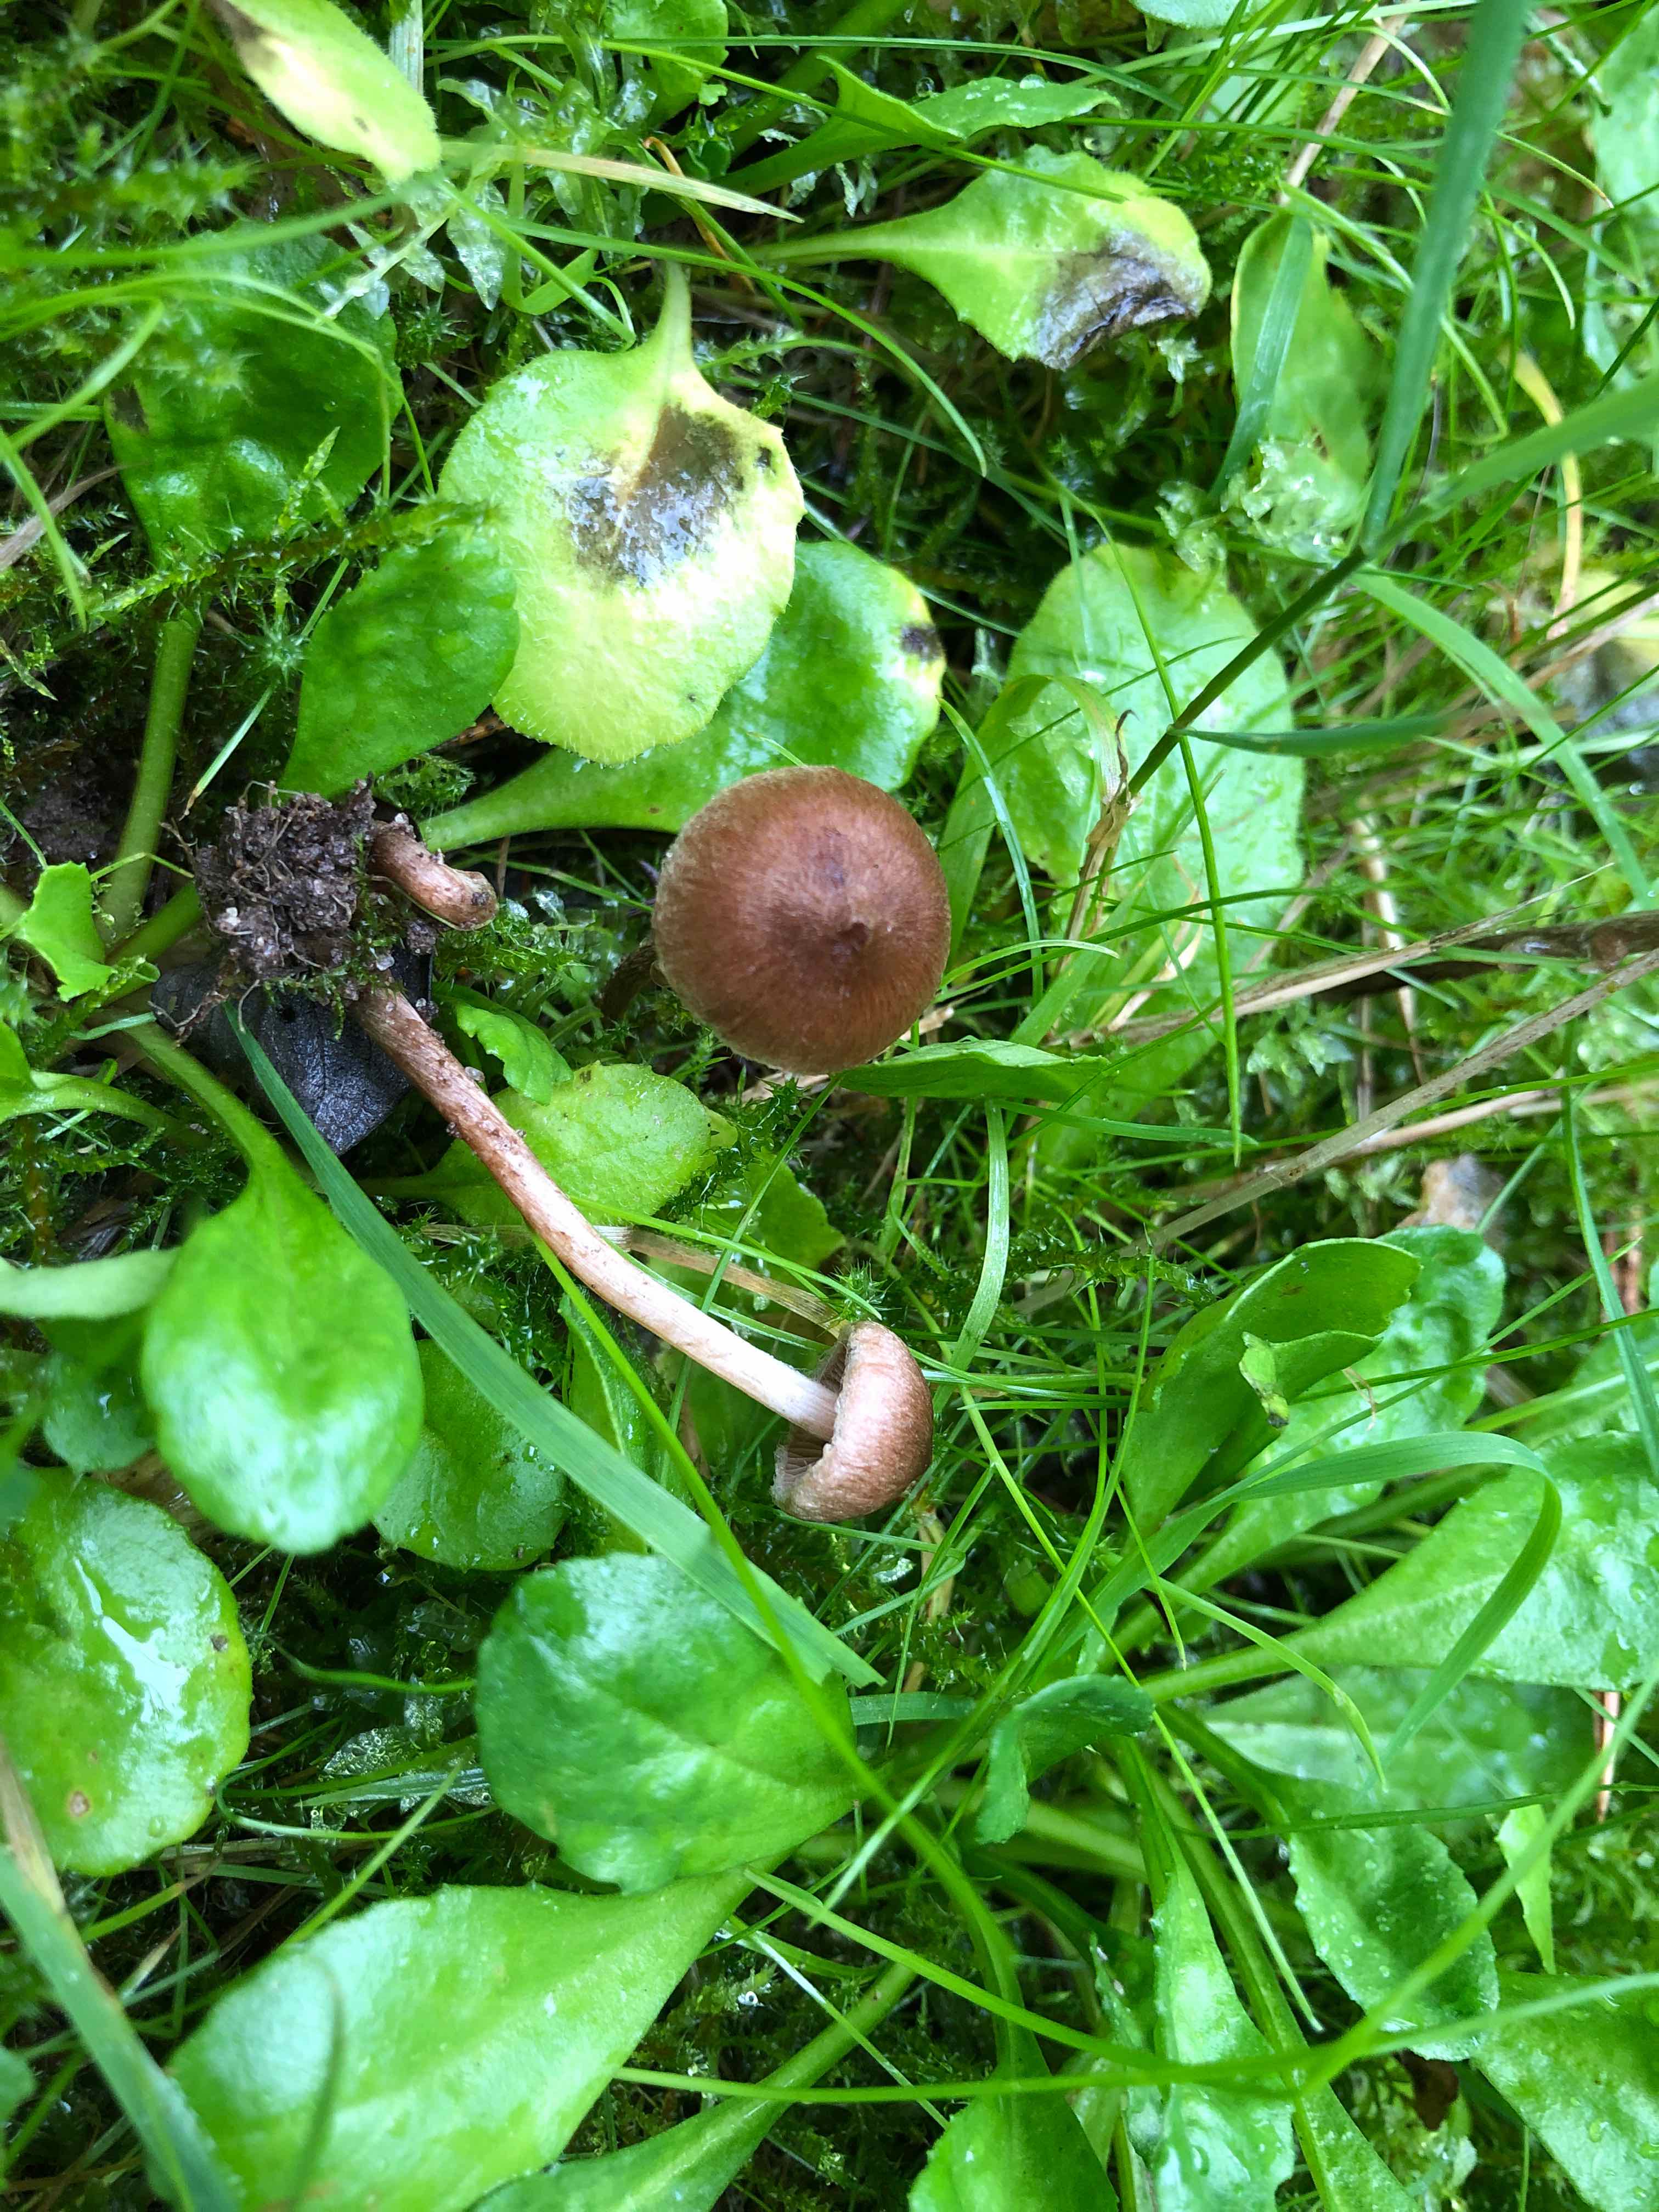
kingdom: Fungi
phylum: Basidiomycota
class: Agaricomycetes
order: Agaricales
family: Inocybaceae
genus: Inocybe
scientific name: Inocybe lacera
